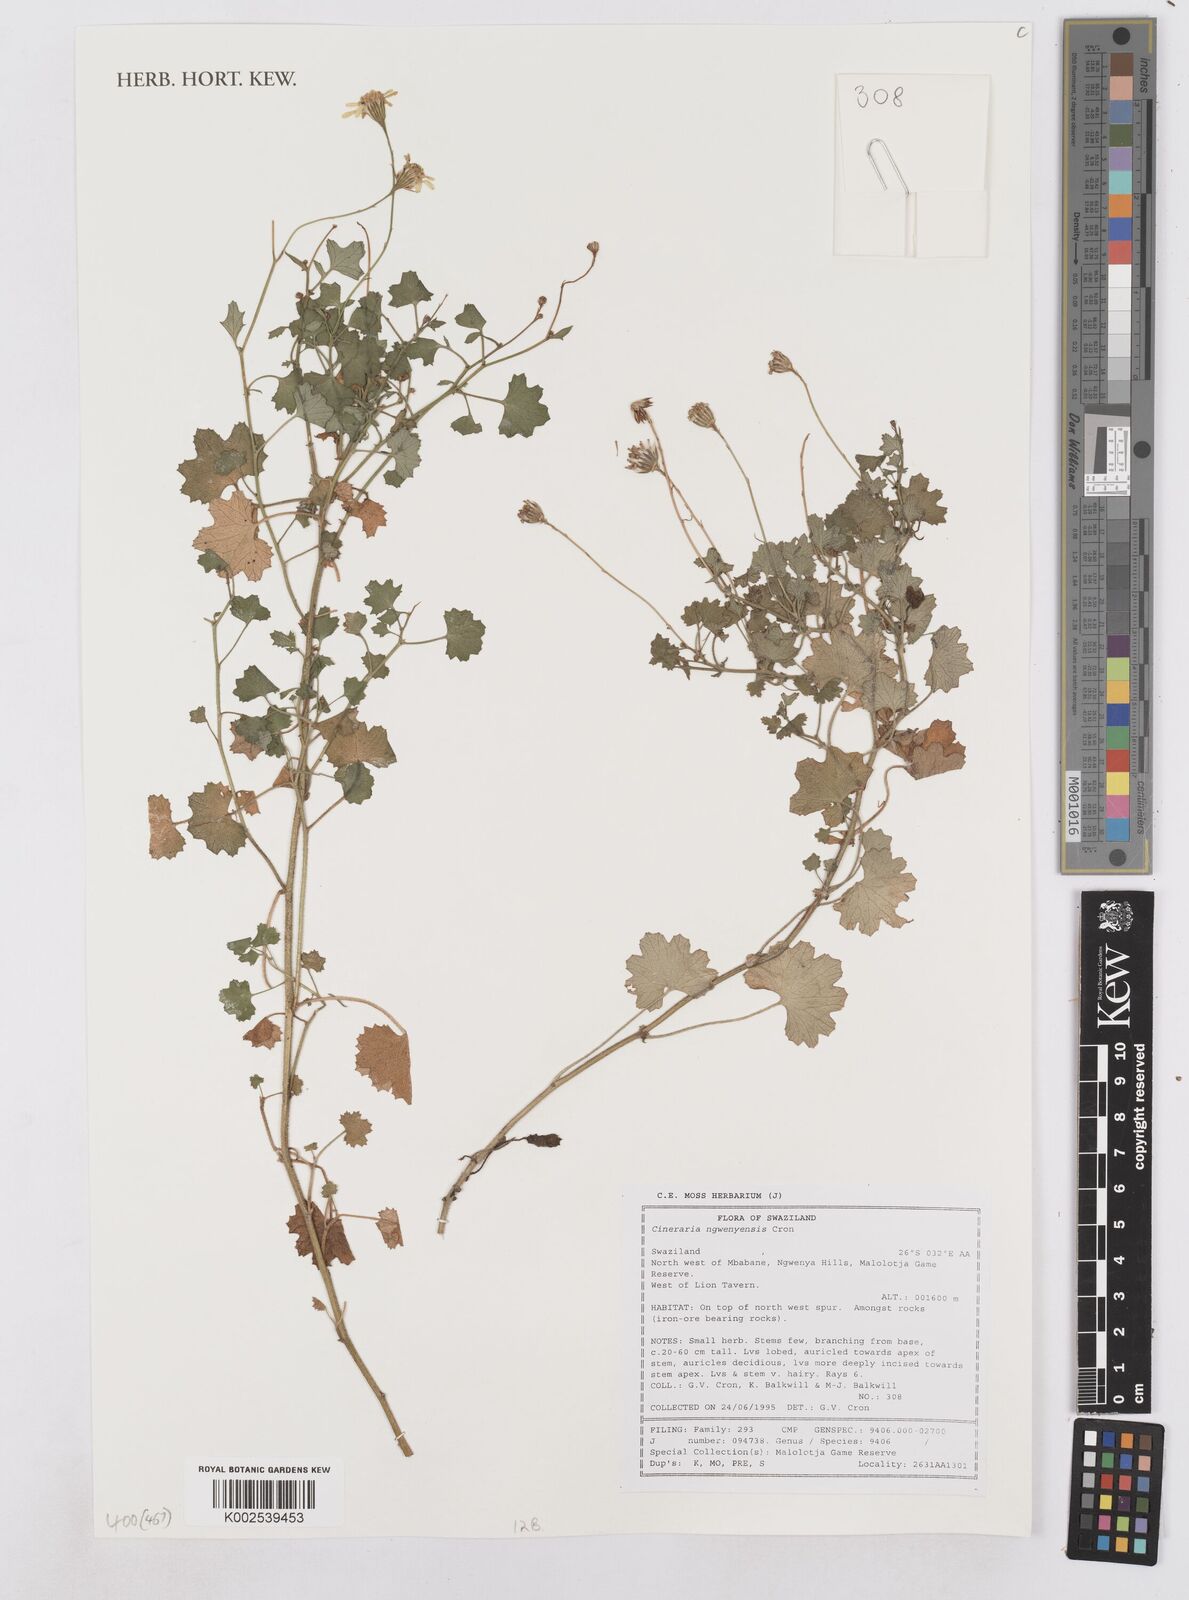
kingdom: Plantae
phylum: Tracheophyta
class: Magnoliopsida
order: Asterales
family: Asteraceae
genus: Cineraria
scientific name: Cineraria ngwenyensis
